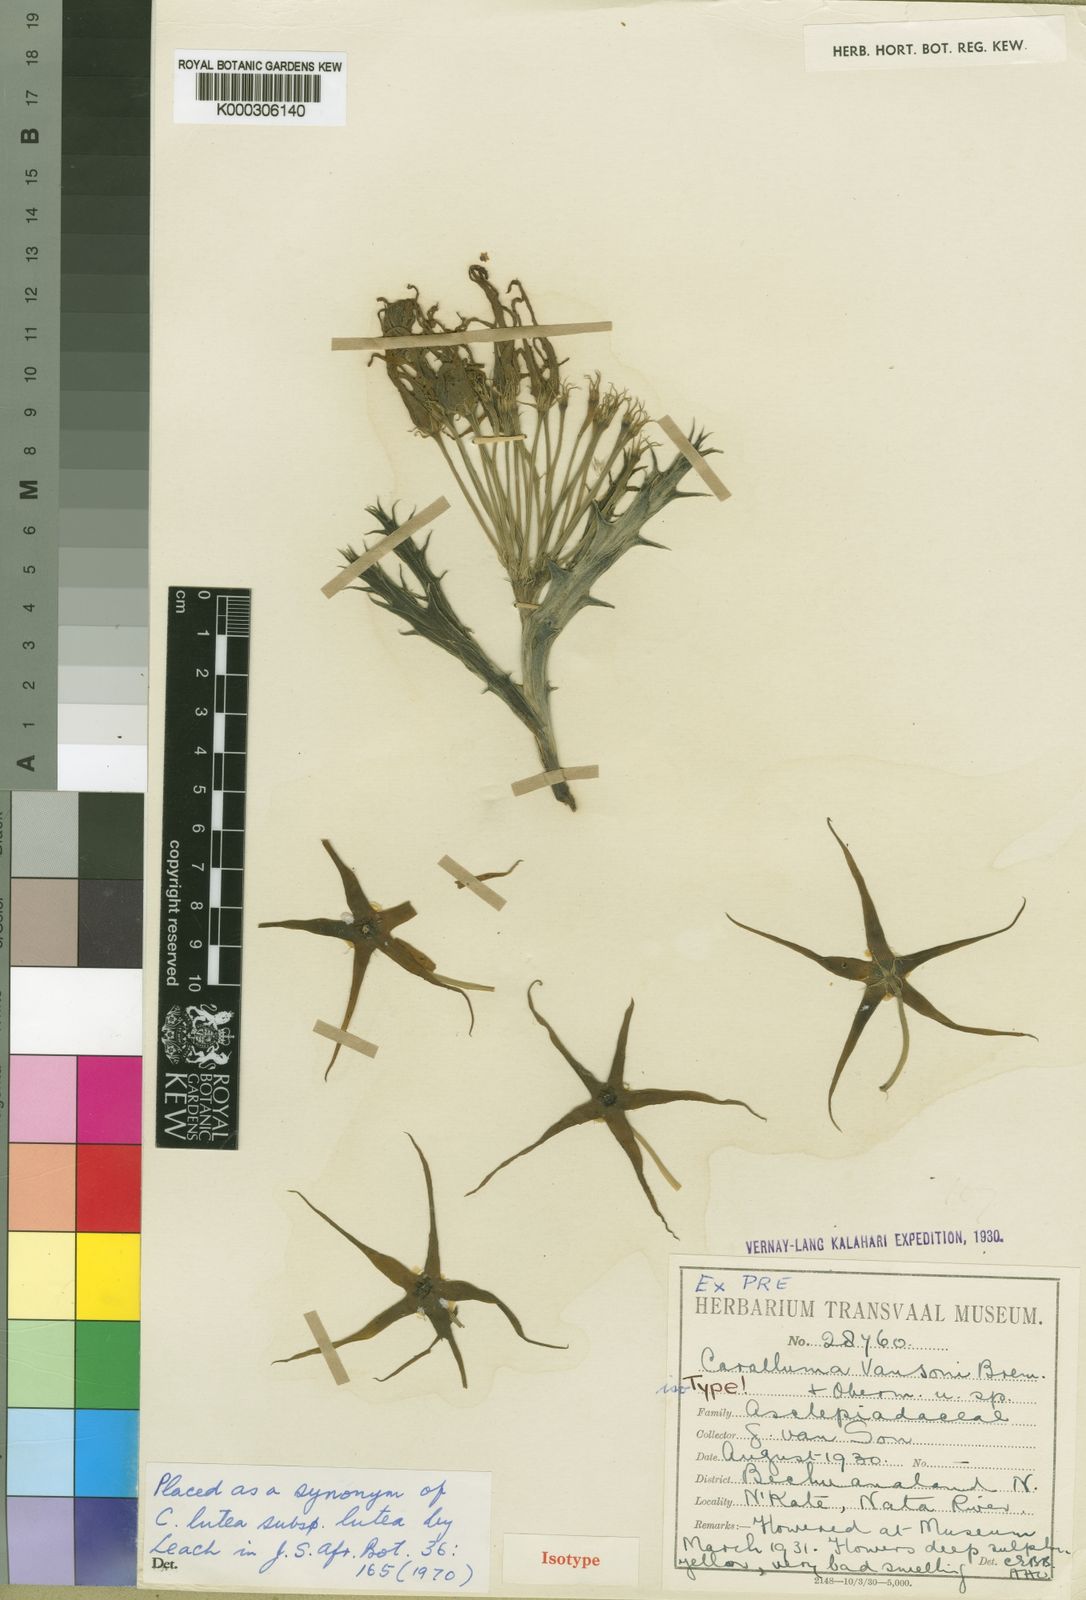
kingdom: Plantae
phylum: Tracheophyta
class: Magnoliopsida
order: Gentianales
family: Apocynaceae
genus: Ceropegia
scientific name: Ceropegia lutea
